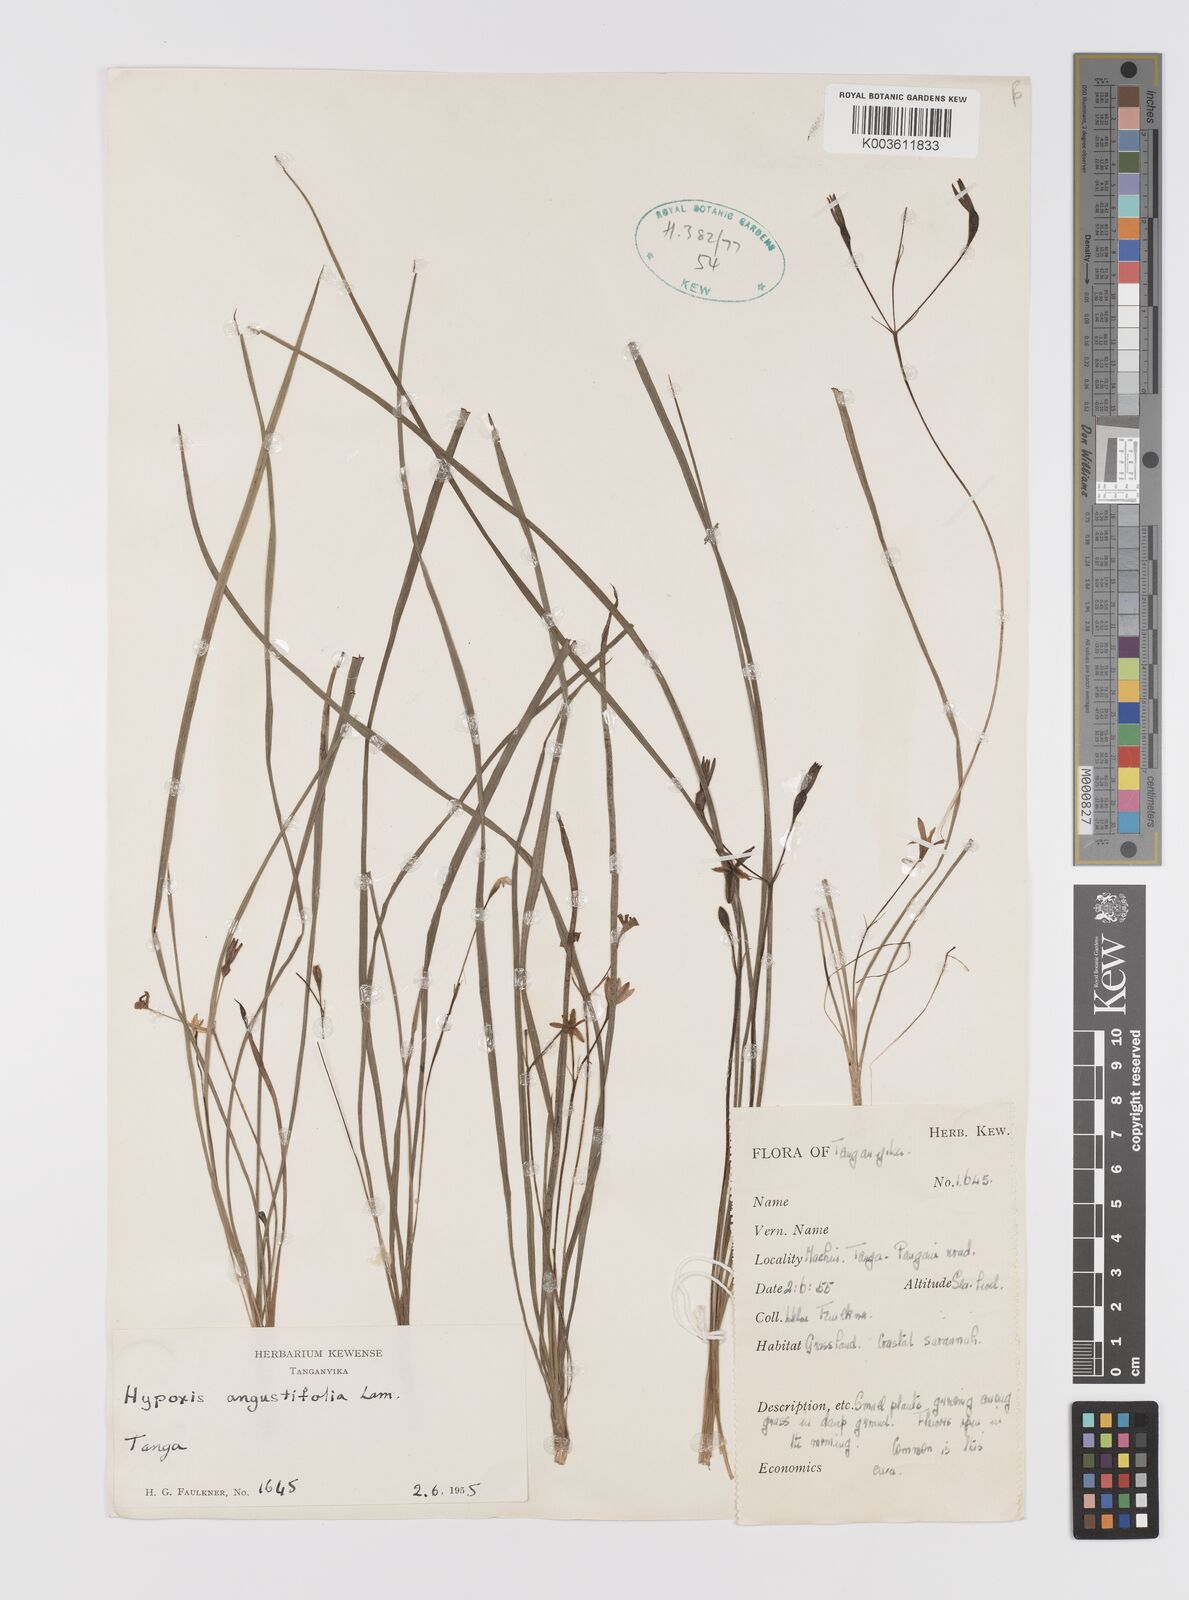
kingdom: Plantae
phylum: Tracheophyta
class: Liliopsida
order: Asparagales
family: Hypoxidaceae
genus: Hypoxis
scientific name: Hypoxis angustifolia
